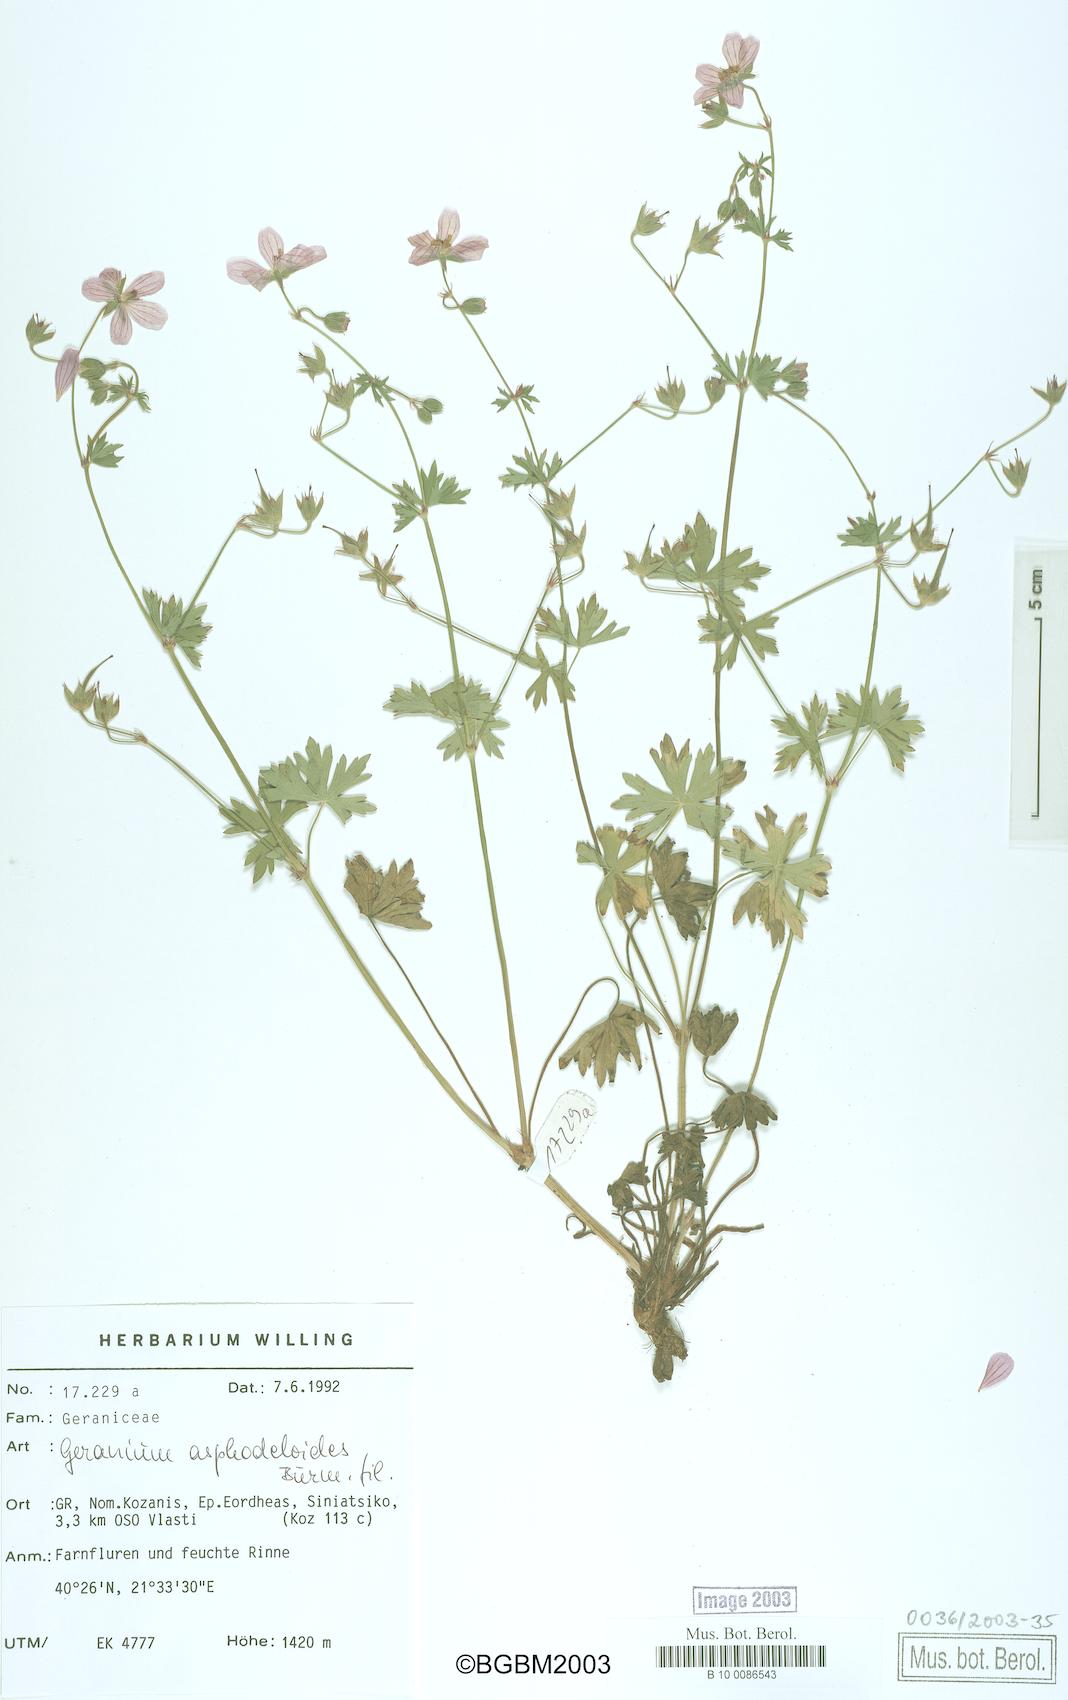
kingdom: Plantae
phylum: Tracheophyta
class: Magnoliopsida
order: Geraniales
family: Geraniaceae
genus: Geranium
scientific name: Geranium asphodeloides
